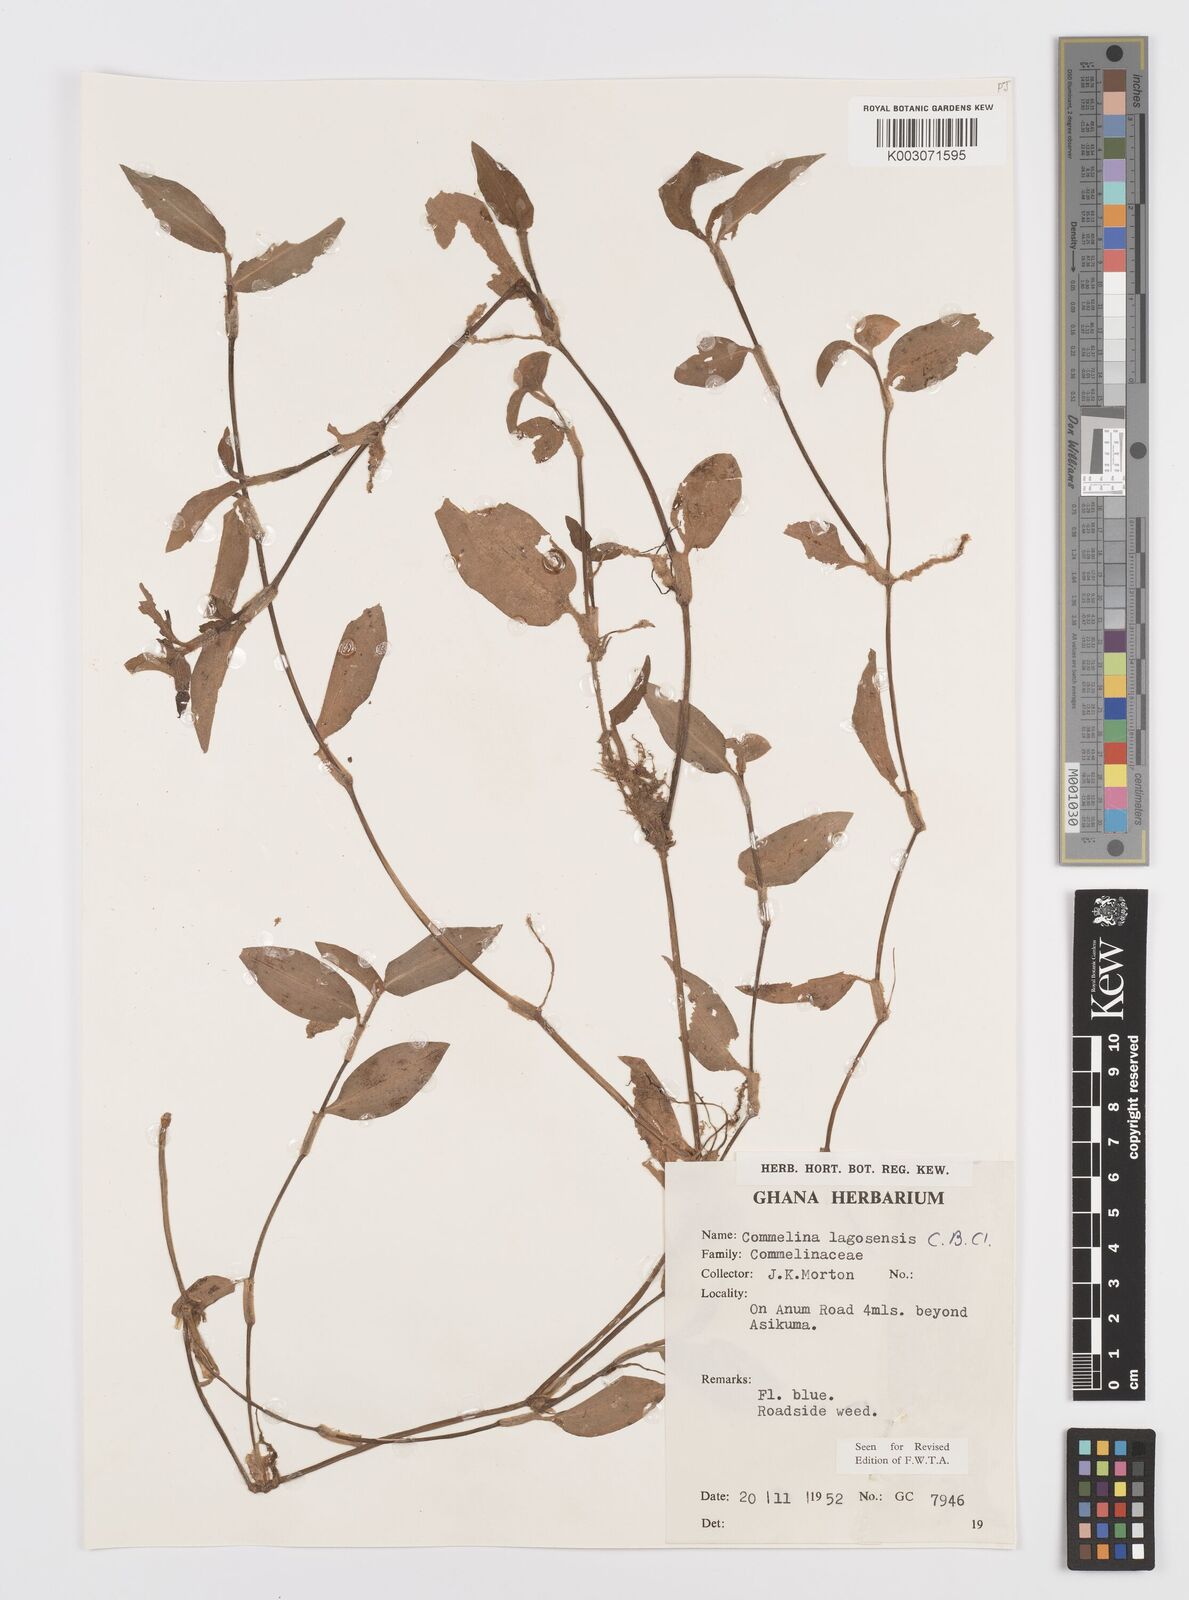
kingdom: Plantae
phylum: Tracheophyta
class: Liliopsida
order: Commelinales
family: Commelinaceae
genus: Commelina
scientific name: Commelina bracteosa
